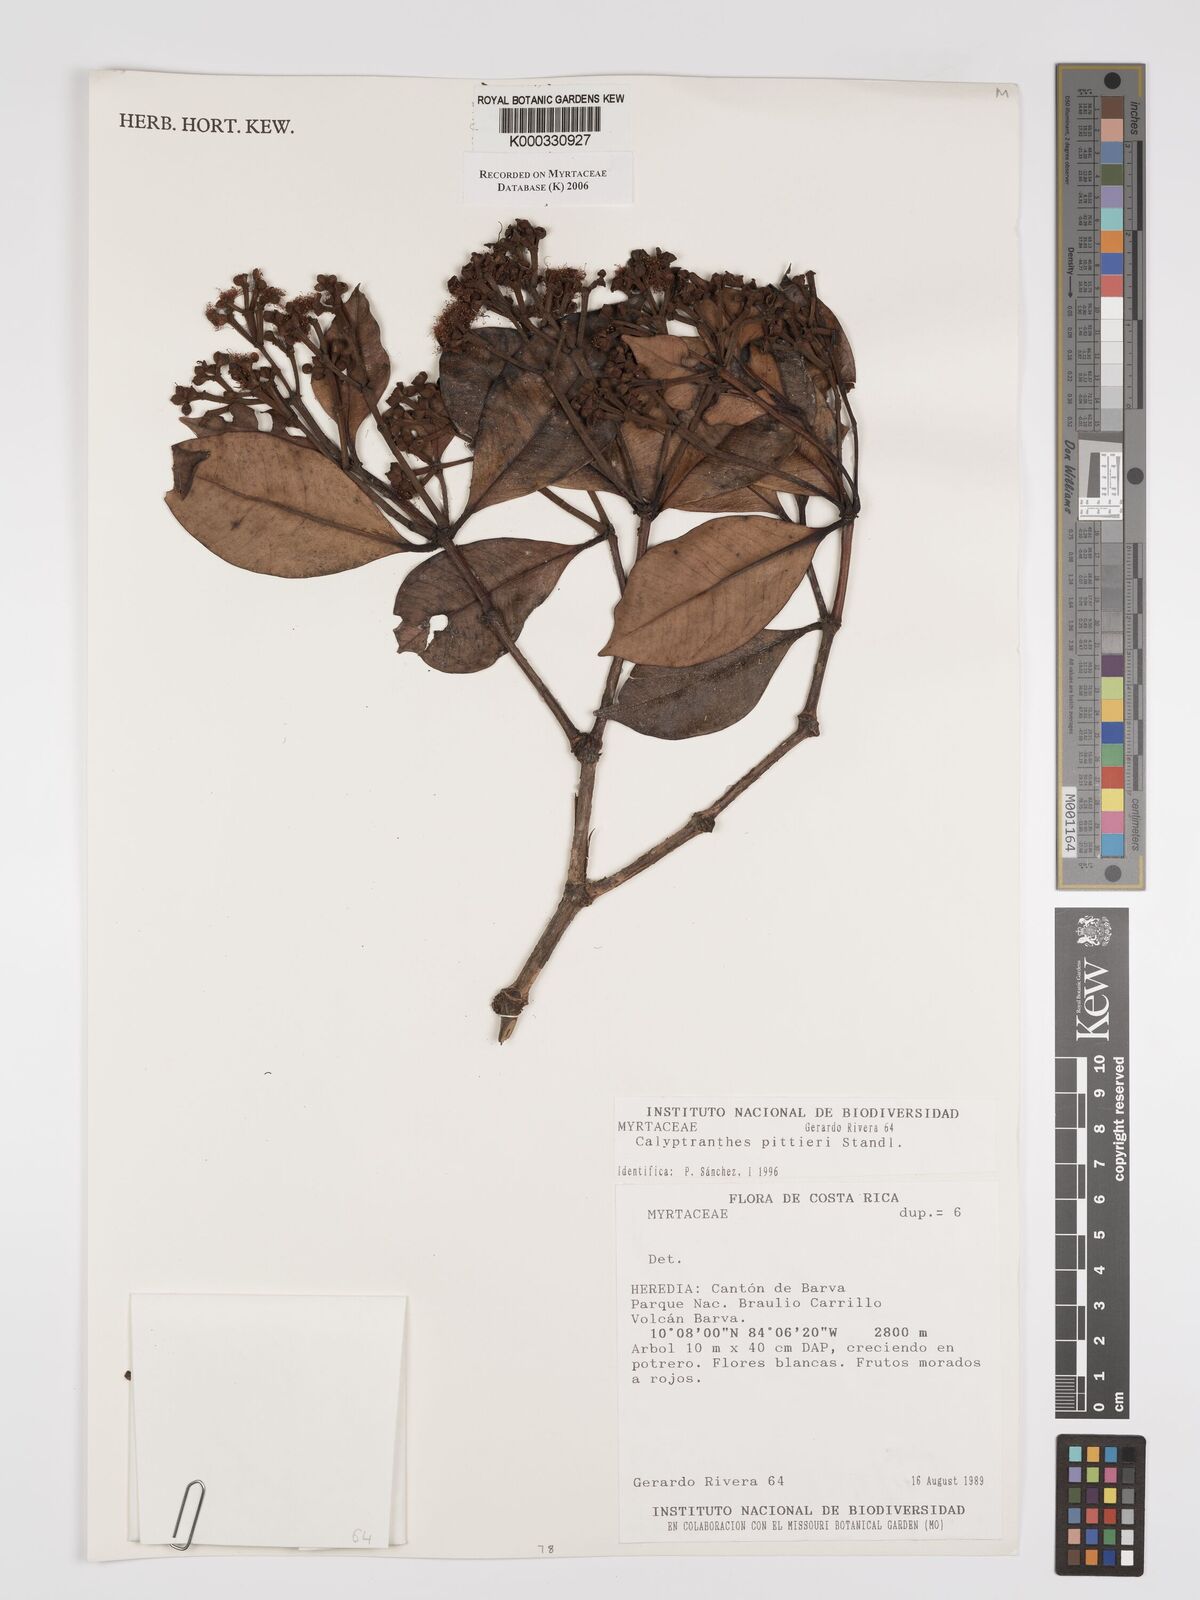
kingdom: Plantae
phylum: Tracheophyta
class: Magnoliopsida
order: Myrtales
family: Myrtaceae
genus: Myrcia
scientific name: Myrcia pittieri
